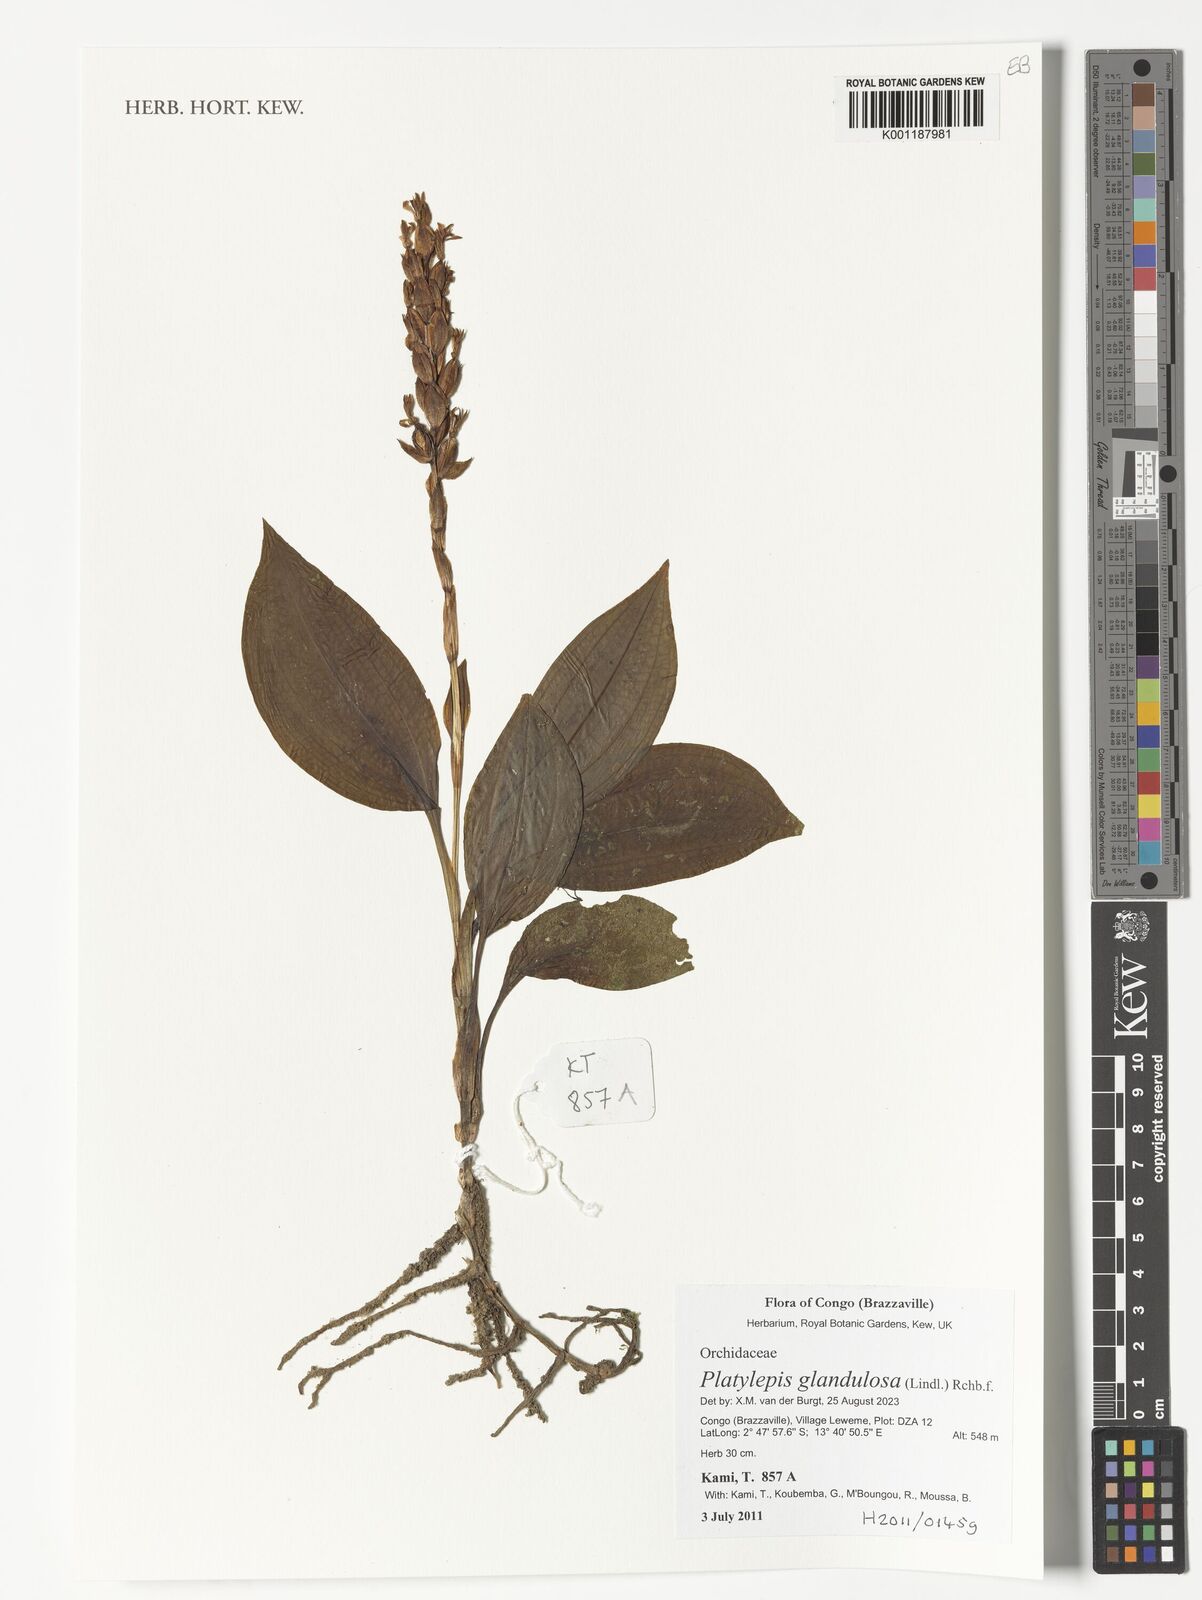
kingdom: Plantae
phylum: Tracheophyta
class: Liliopsida
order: Asparagales
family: Orchidaceae
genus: Platylepis
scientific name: Platylepis glandulosa
